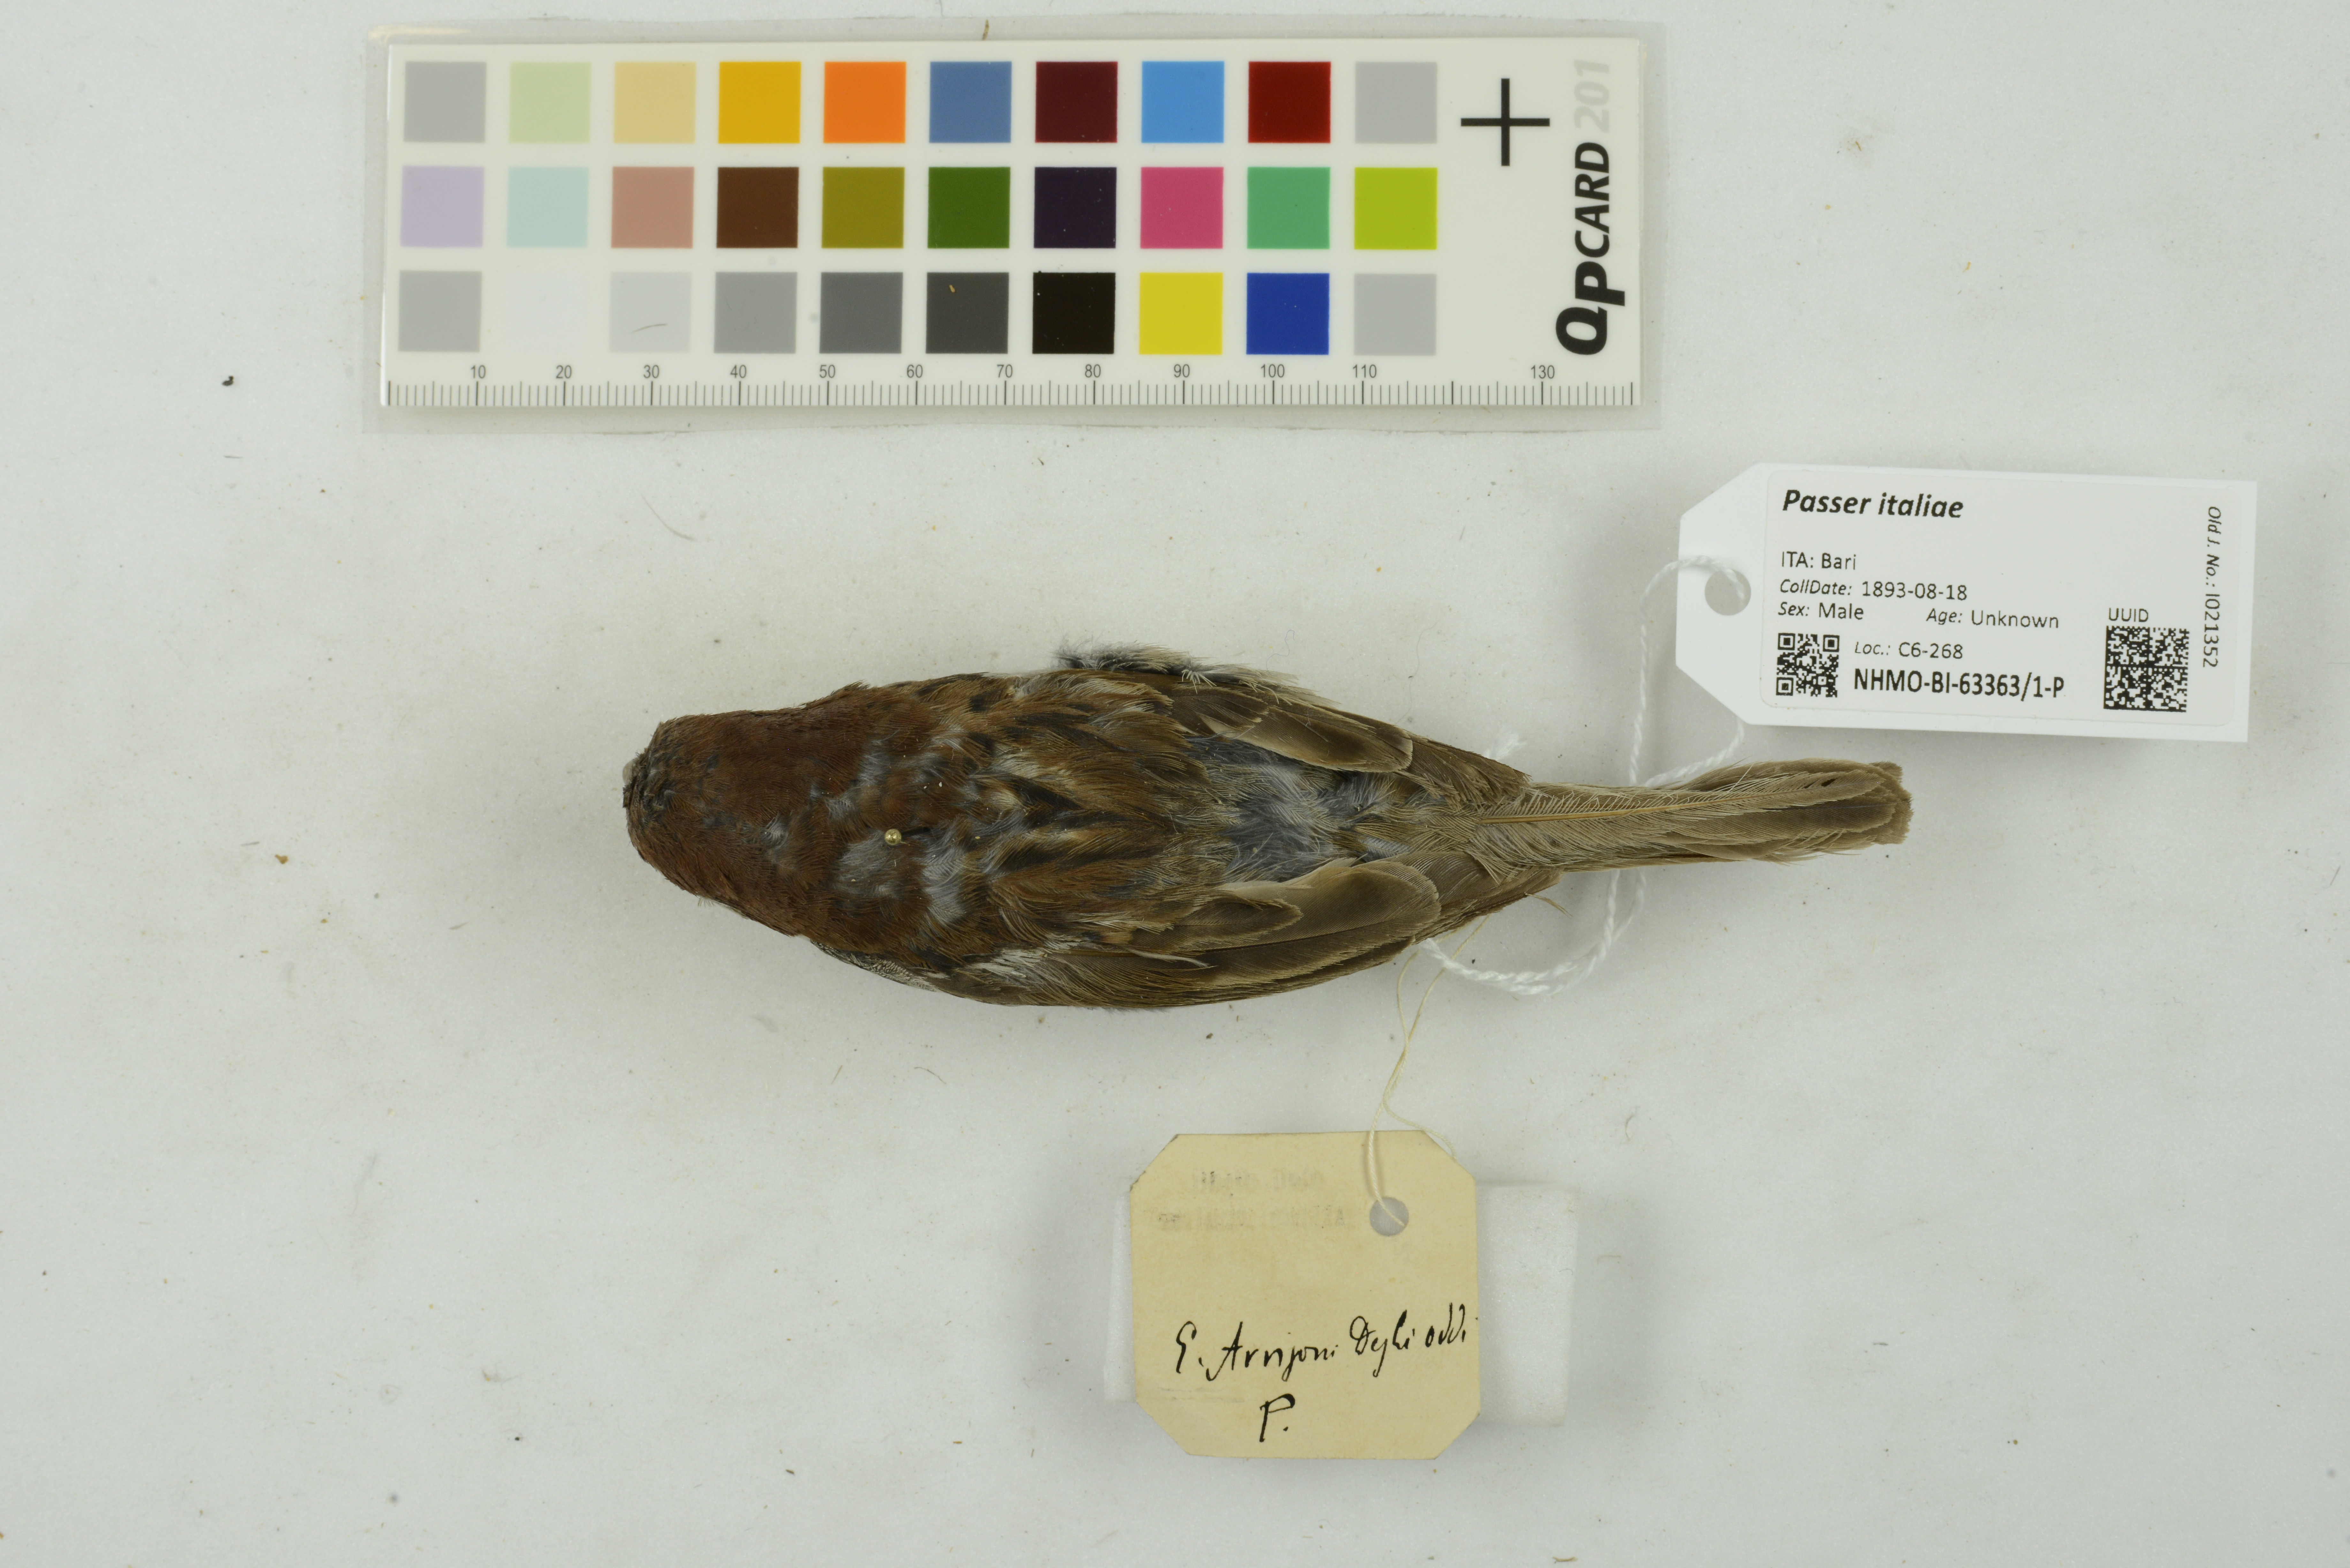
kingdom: Animalia
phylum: Chordata
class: Aves
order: Passeriformes
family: Passeridae
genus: Passer
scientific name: Passer italiae
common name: Italian sparrow
